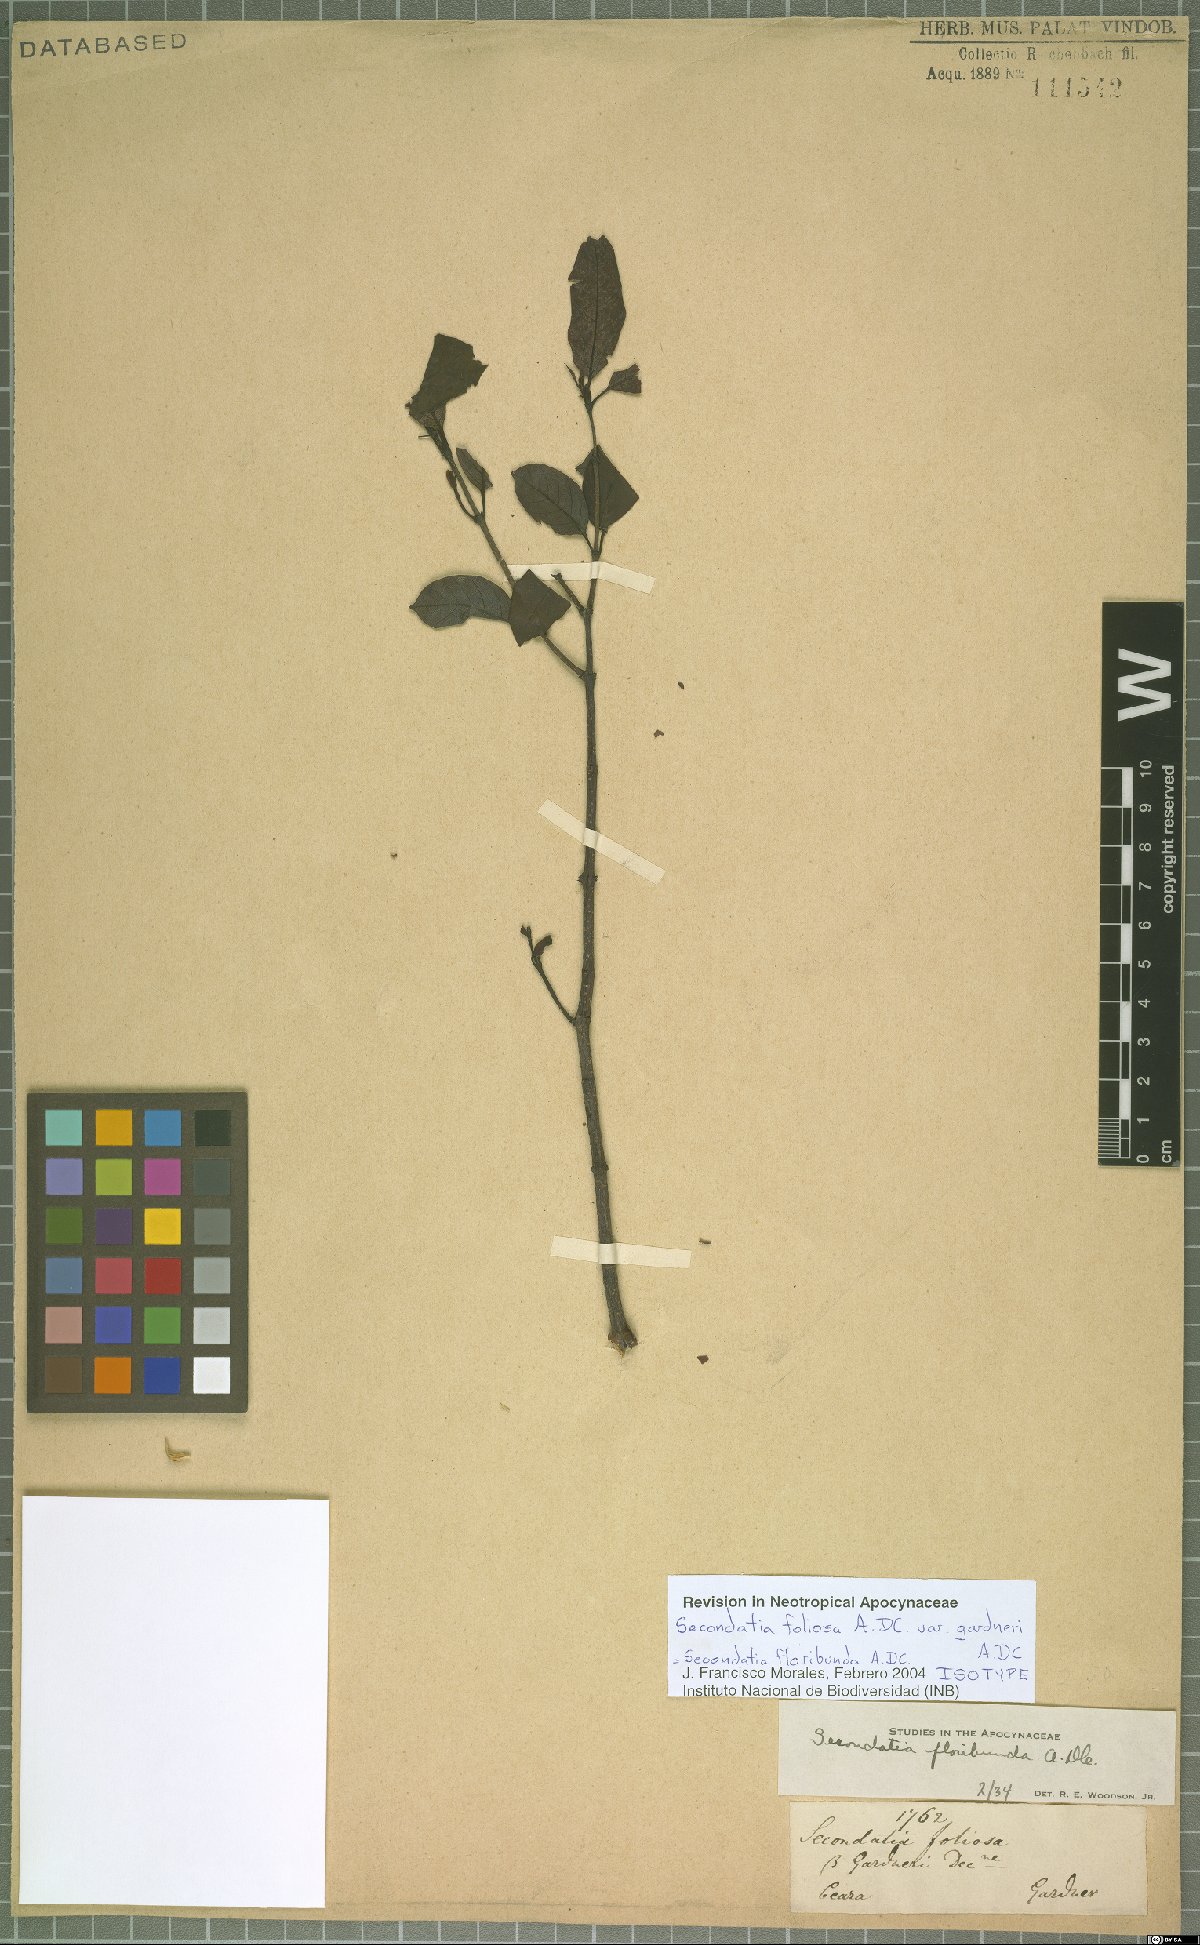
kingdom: Plantae
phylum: Tracheophyta
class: Magnoliopsida
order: Gentianales
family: Apocynaceae
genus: Secondatia
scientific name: Secondatia floribunda
